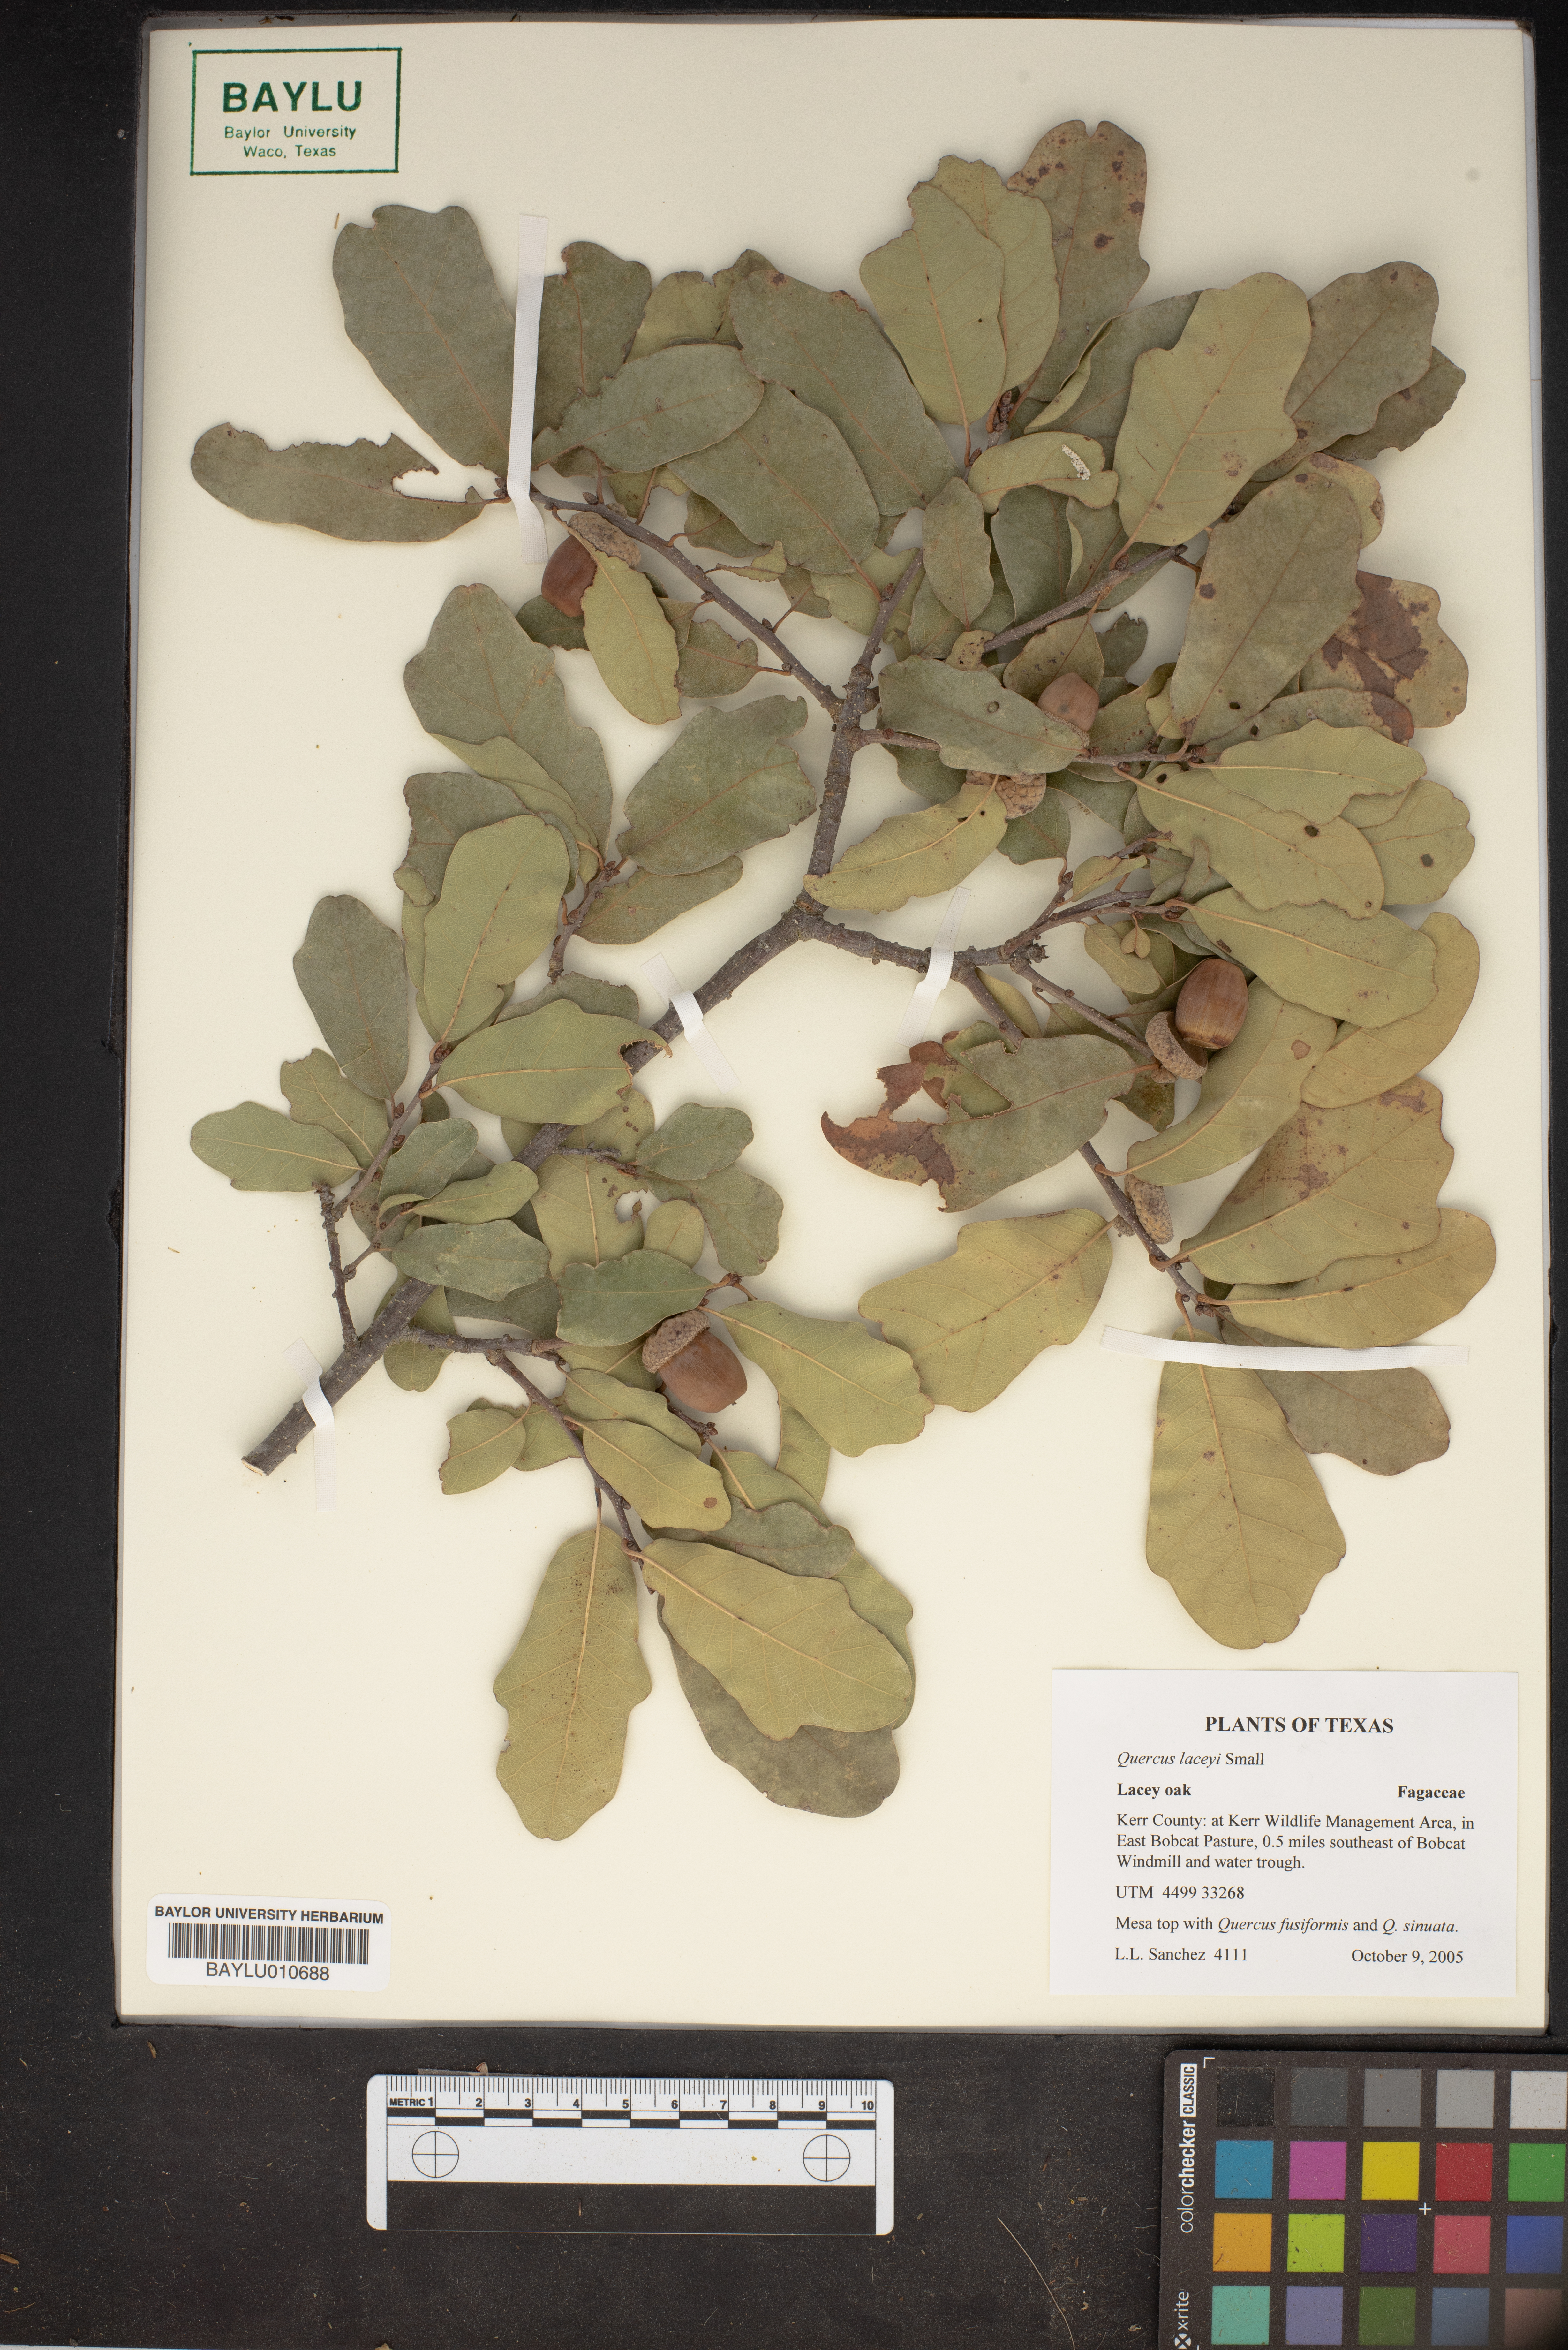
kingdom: Plantae
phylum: Tracheophyta
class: Magnoliopsida
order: Fagales
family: Fagaceae
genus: Quercus
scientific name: Quercus laceyi
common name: Lacey oak
